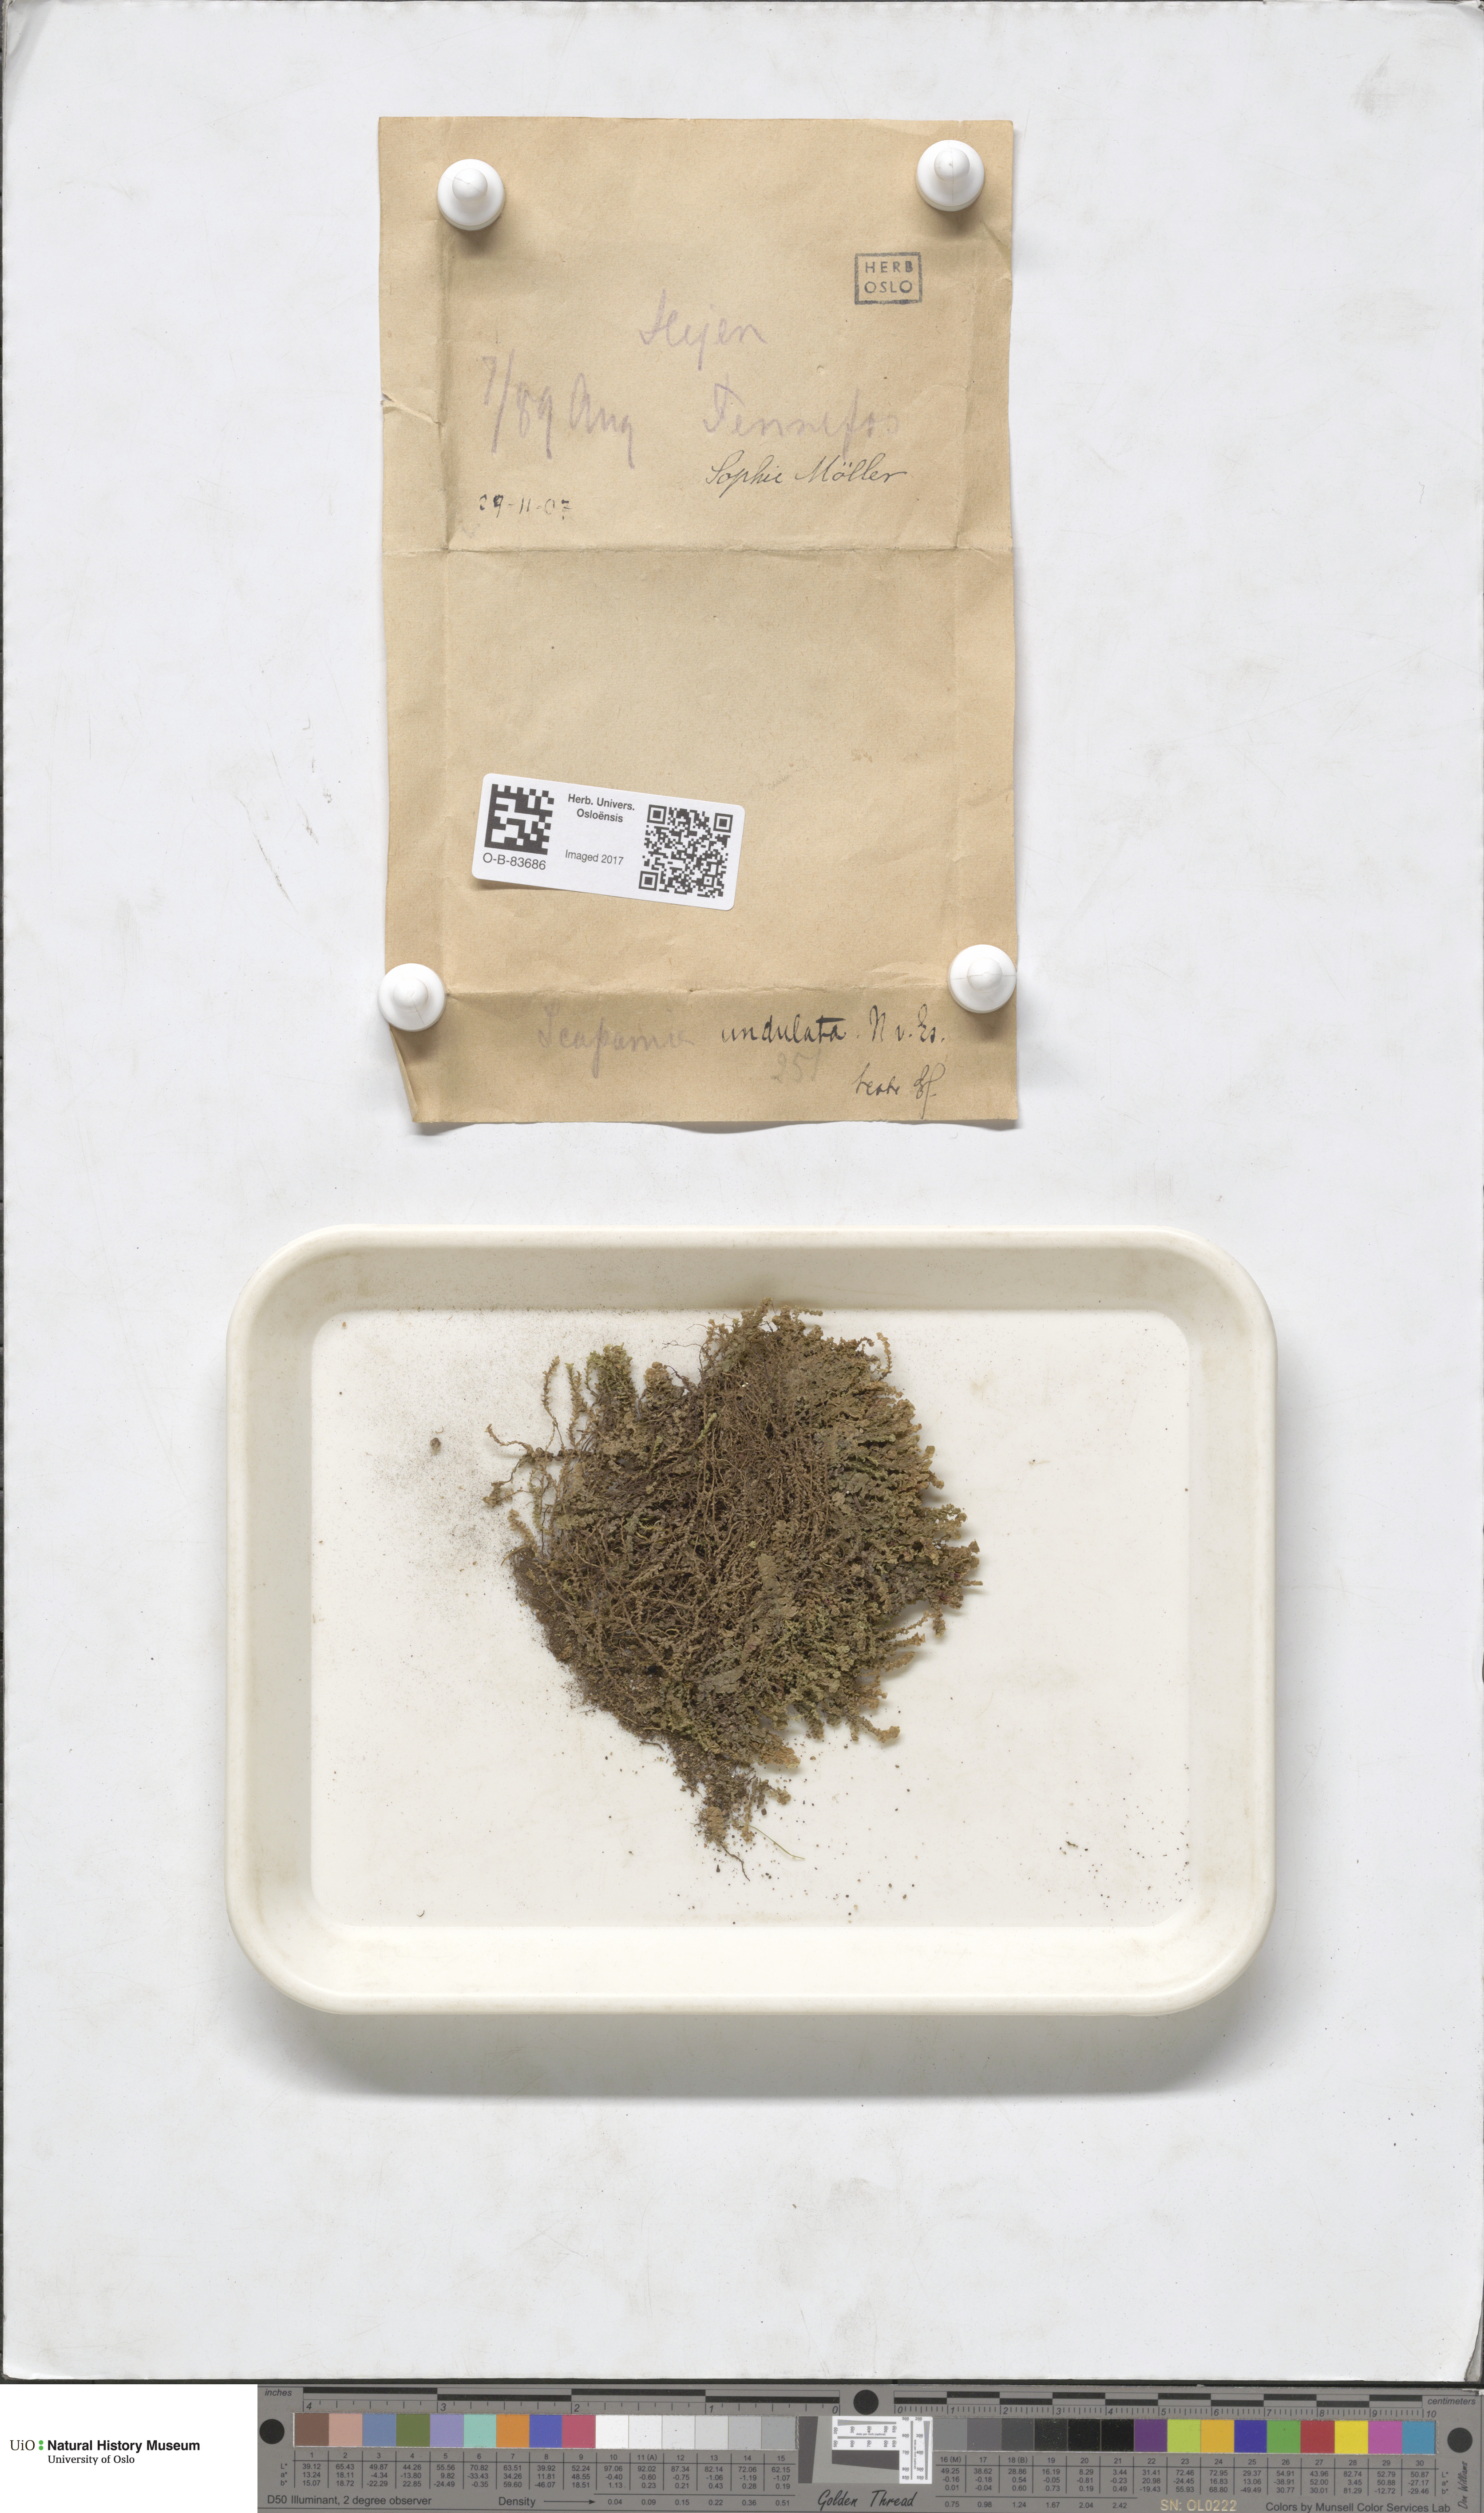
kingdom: Plantae
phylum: Marchantiophyta
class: Jungermanniopsida
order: Jungermanniales
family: Scapaniaceae
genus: Scapania
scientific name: Scapania undulata
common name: Water earwort
